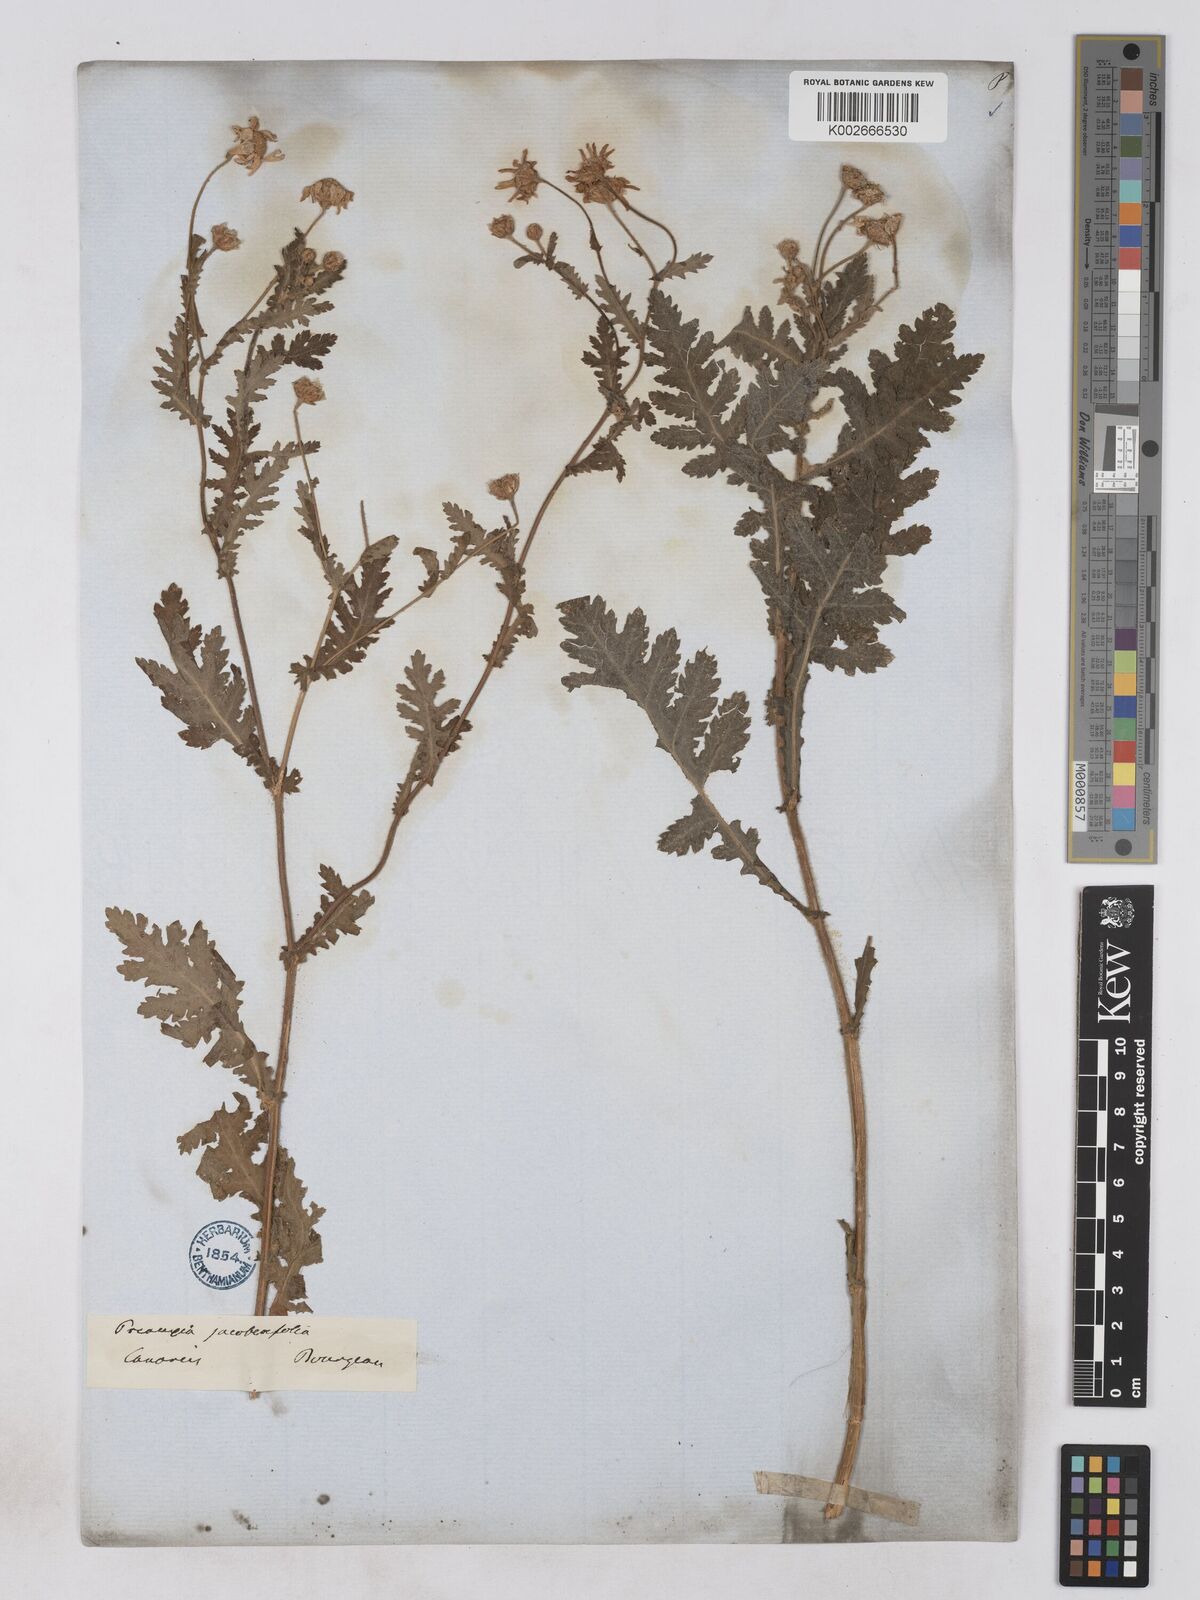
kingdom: Plantae
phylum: Tracheophyta
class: Magnoliopsida
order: Asterales
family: Asteraceae
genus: Argyranthemum
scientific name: Argyranthemum adauctum
